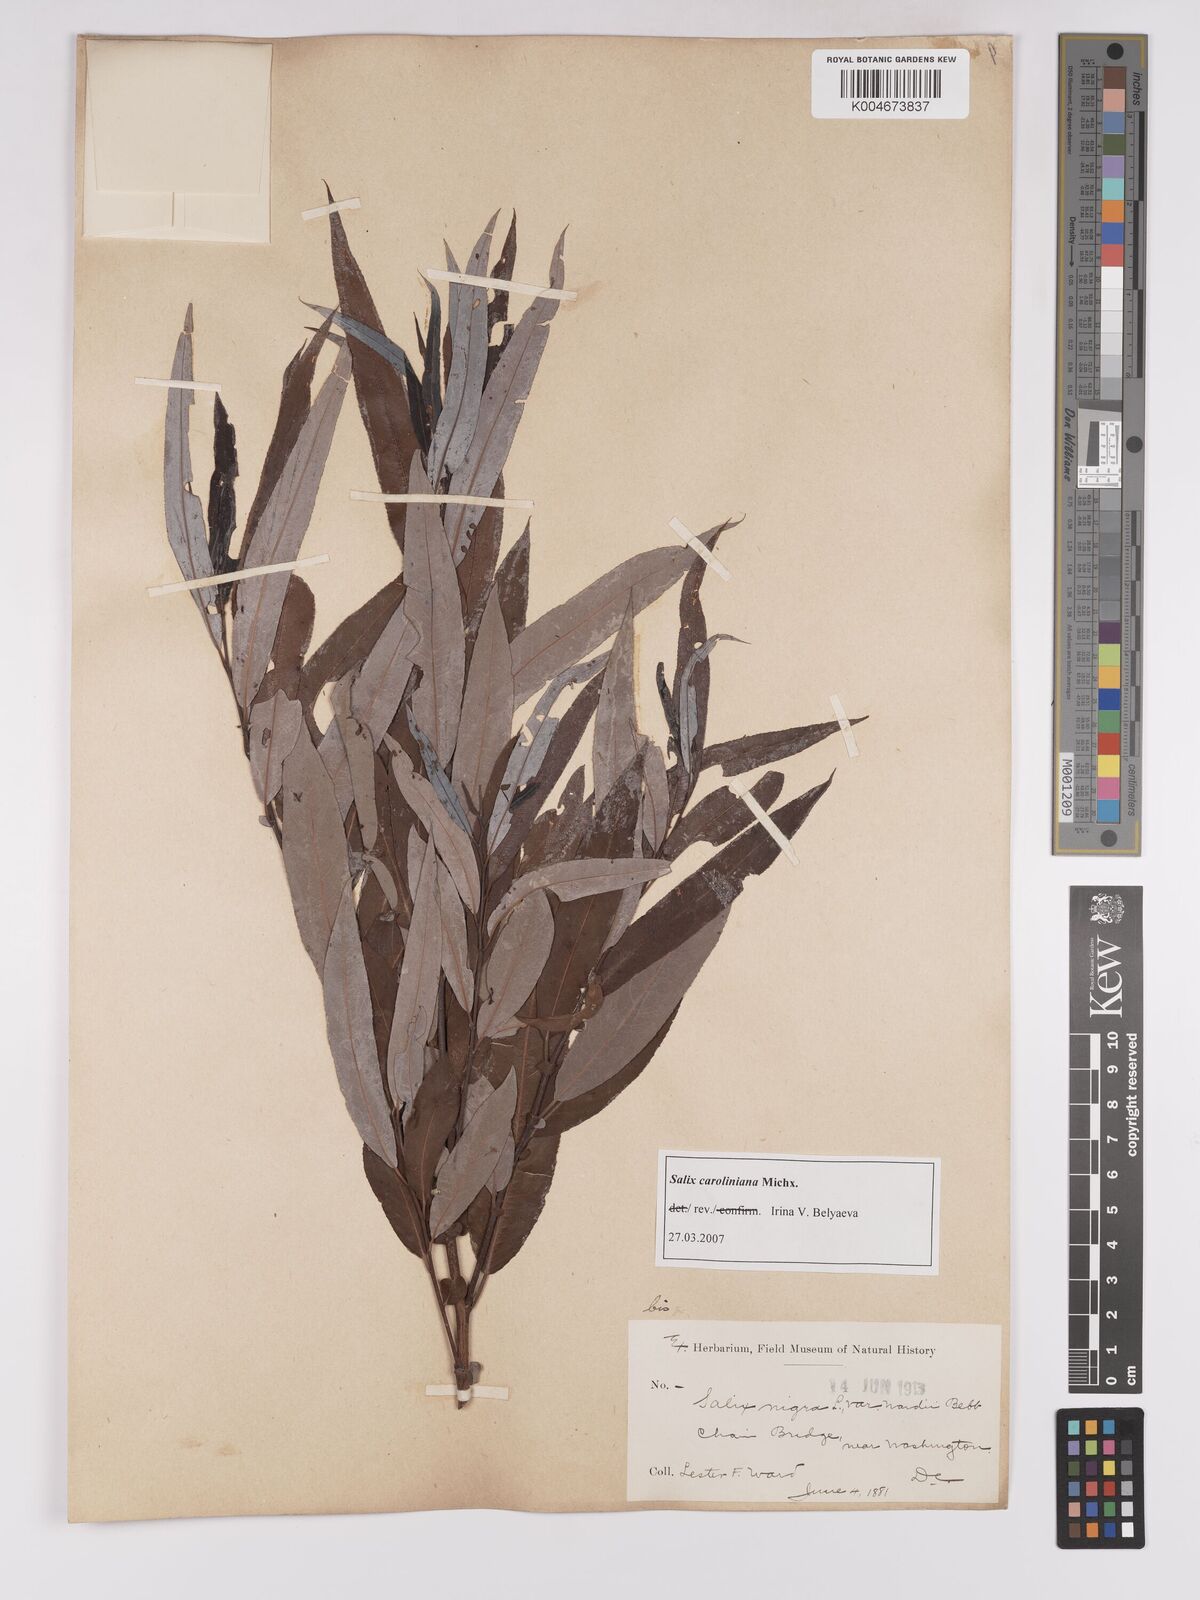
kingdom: Plantae
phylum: Tracheophyta
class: Magnoliopsida
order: Malpighiales
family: Salicaceae
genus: Salix
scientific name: Salix caroliniana
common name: Carolina willow
